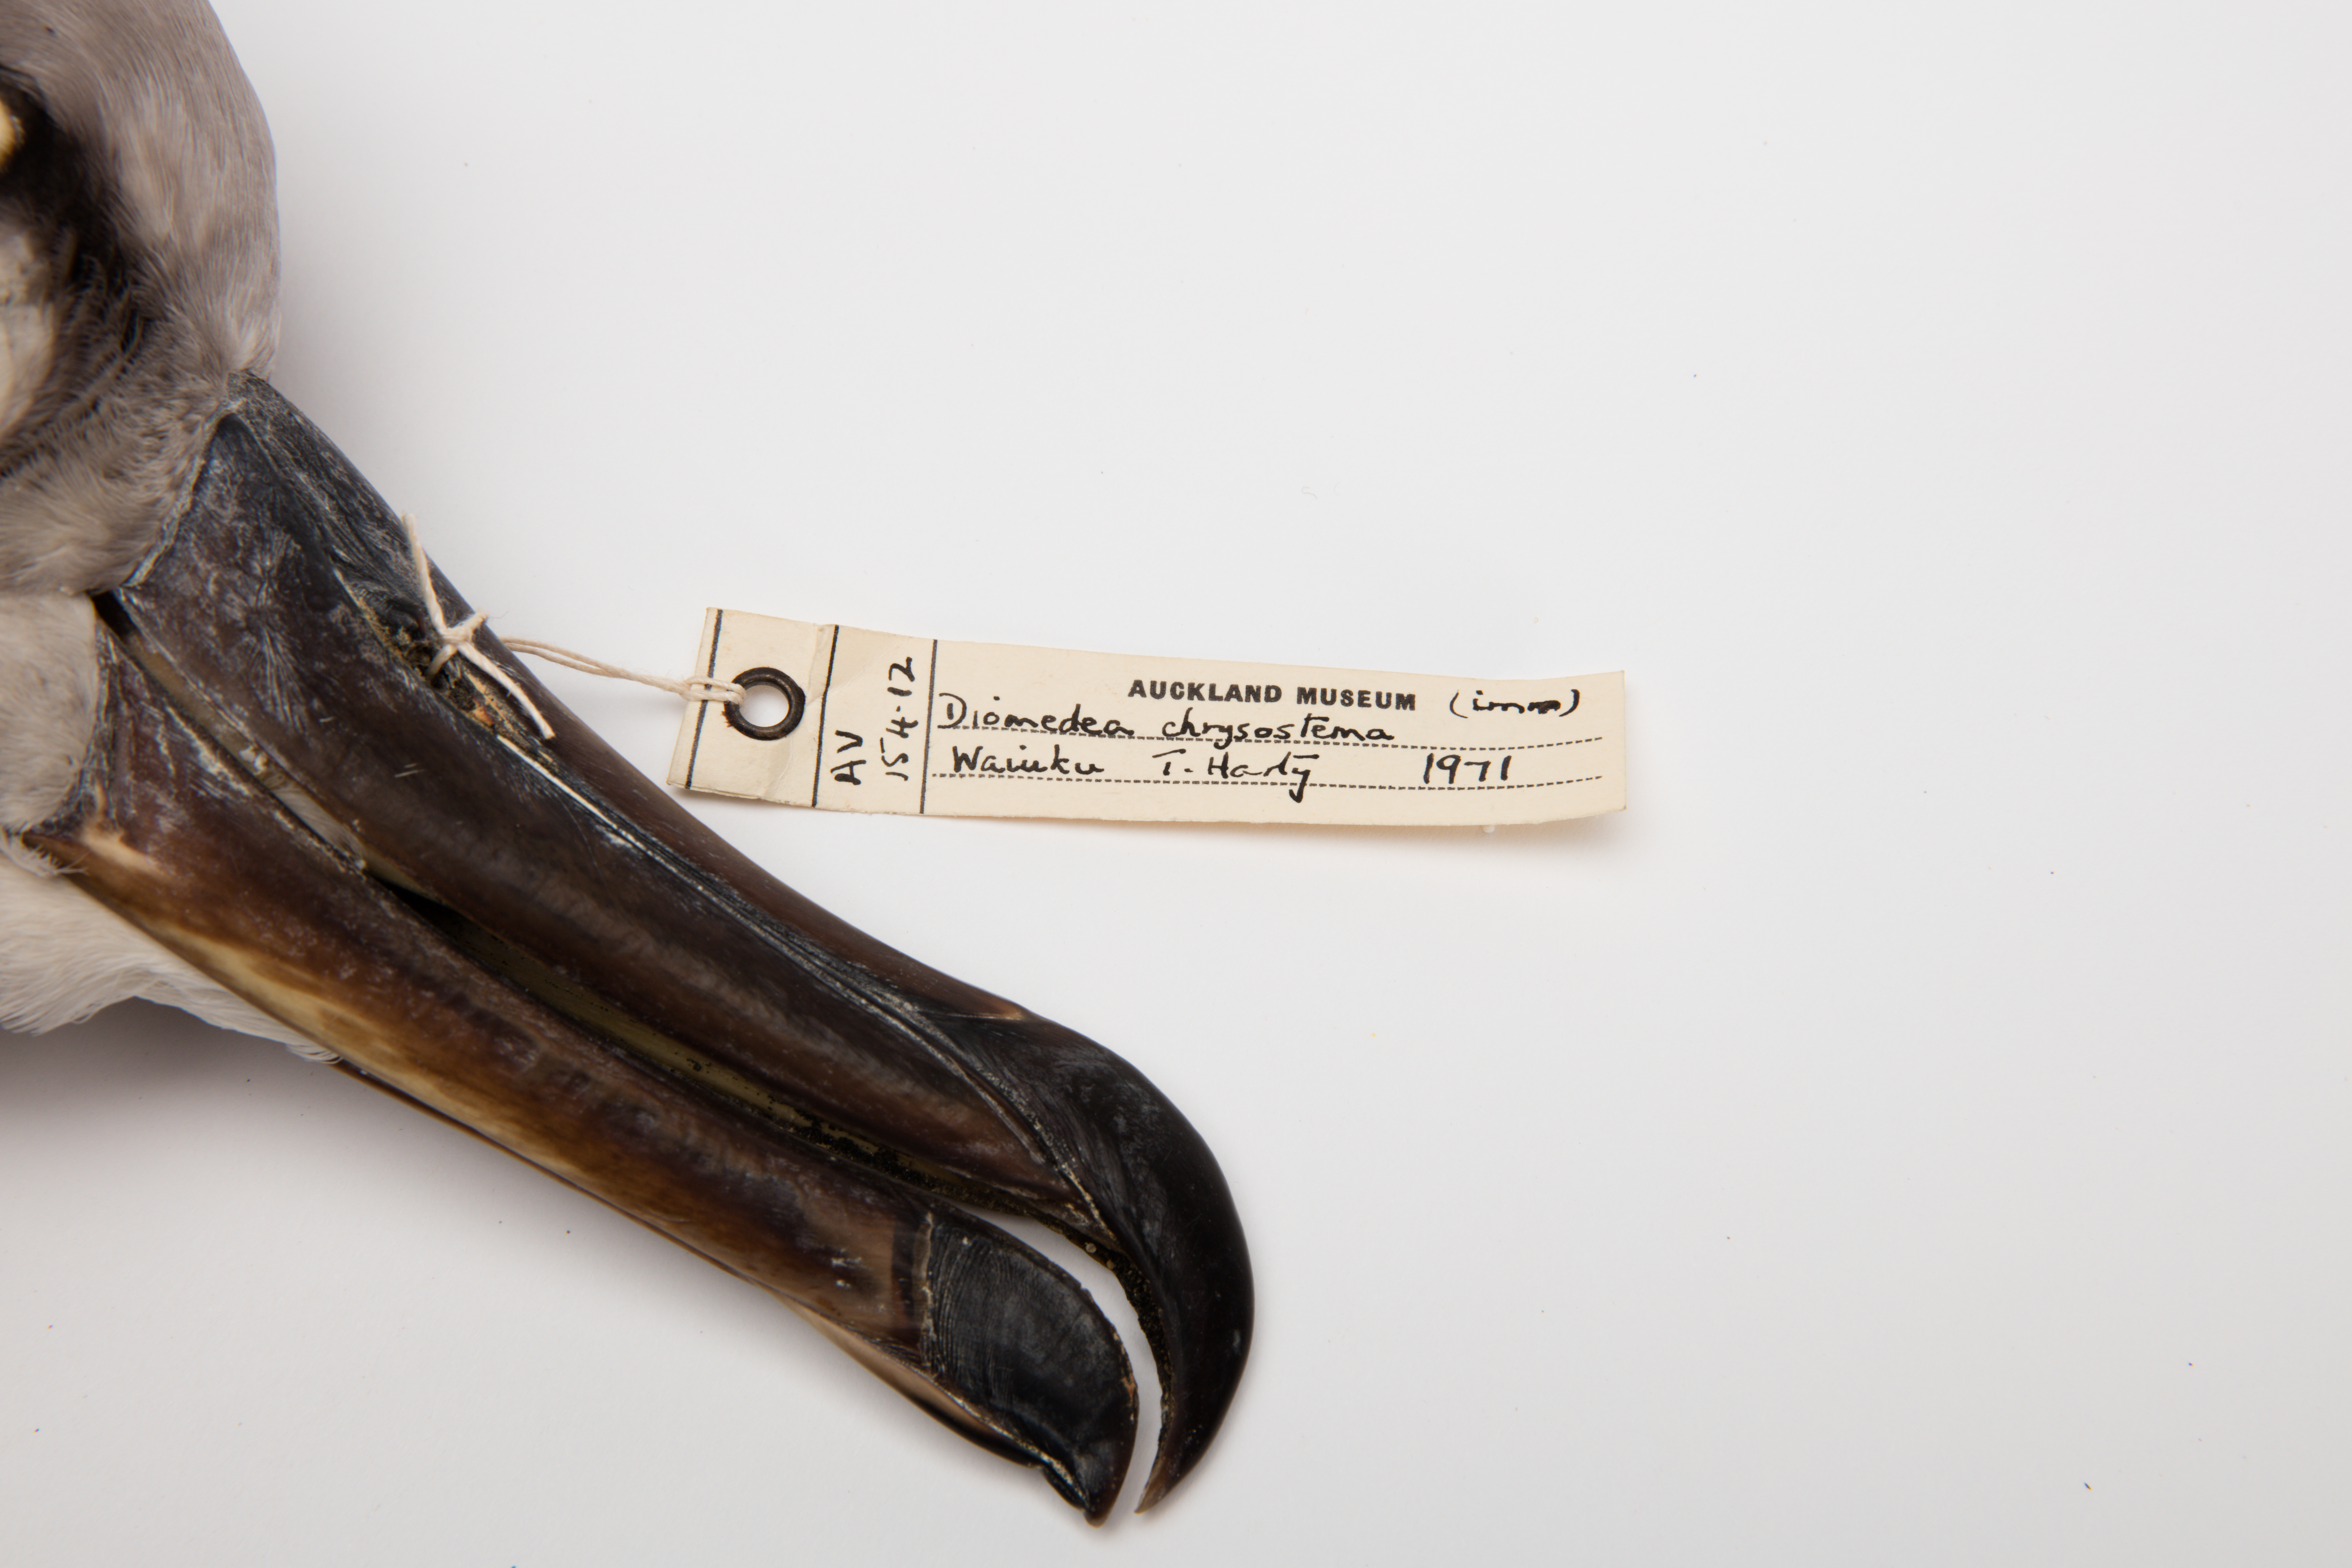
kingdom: Animalia
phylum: Chordata
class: Aves
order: Procellariiformes
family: Diomedeidae
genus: Thalassarche
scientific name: Thalassarche chrysostoma
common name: Grey-headed albatross
